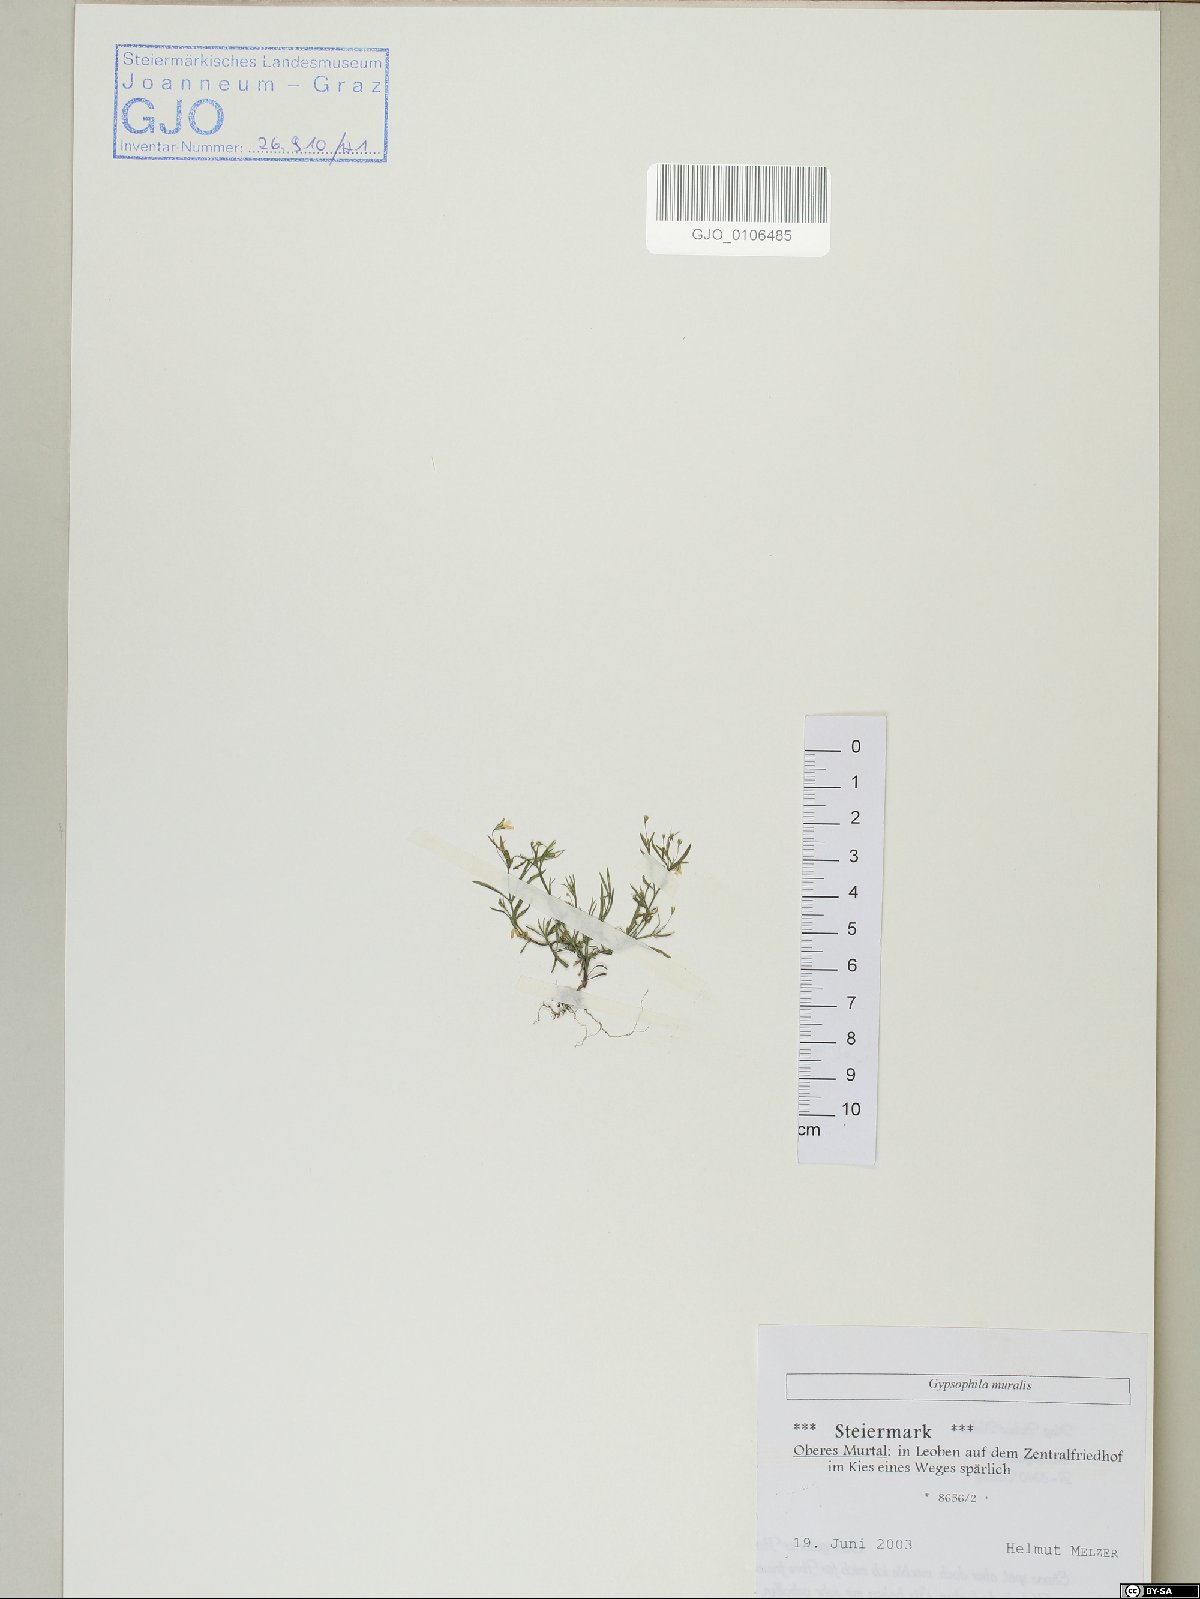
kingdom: Plantae
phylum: Tracheophyta
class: Magnoliopsida
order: Caryophyllales
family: Caryophyllaceae
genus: Psammophiliella
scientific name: Psammophiliella muralis
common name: Cushion baby's-breath
